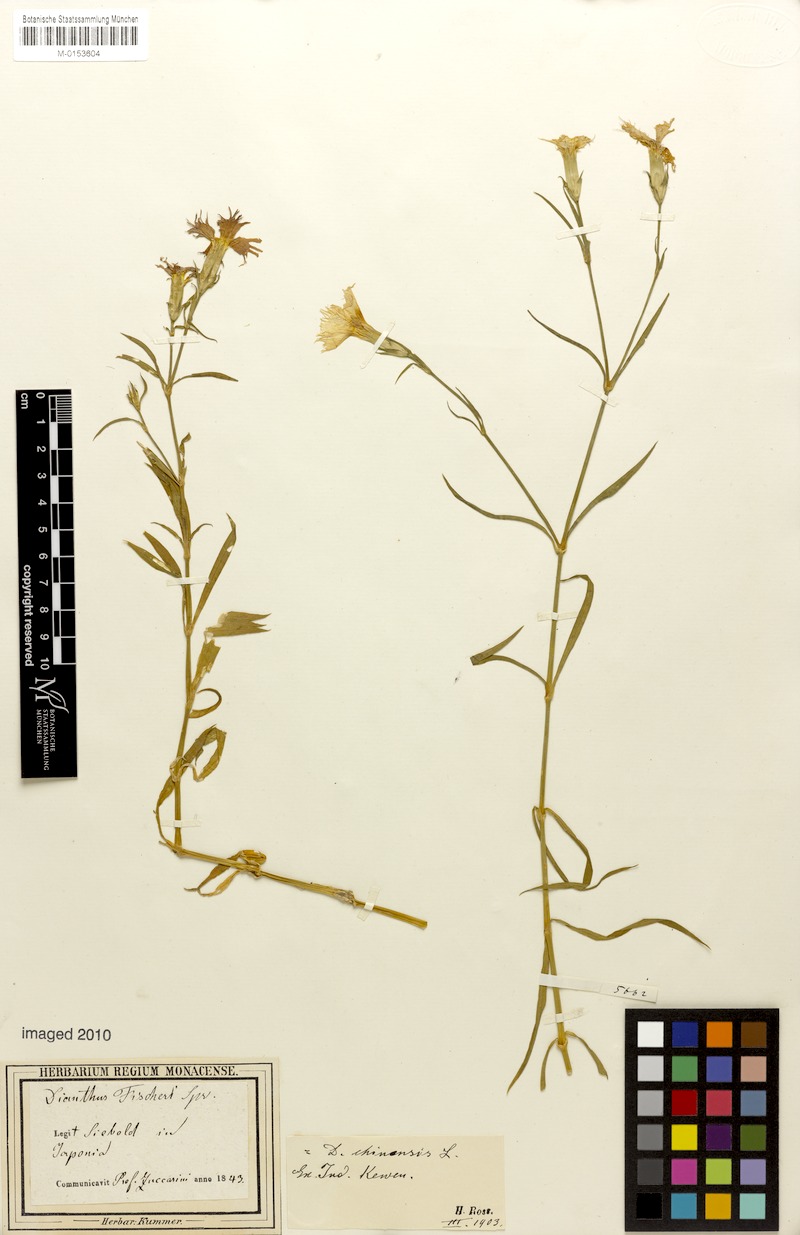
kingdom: Plantae
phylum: Tracheophyta
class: Magnoliopsida
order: Caryophyllales
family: Caryophyllaceae
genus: Dianthus
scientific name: Dianthus chinensis
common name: Rainbow pink
